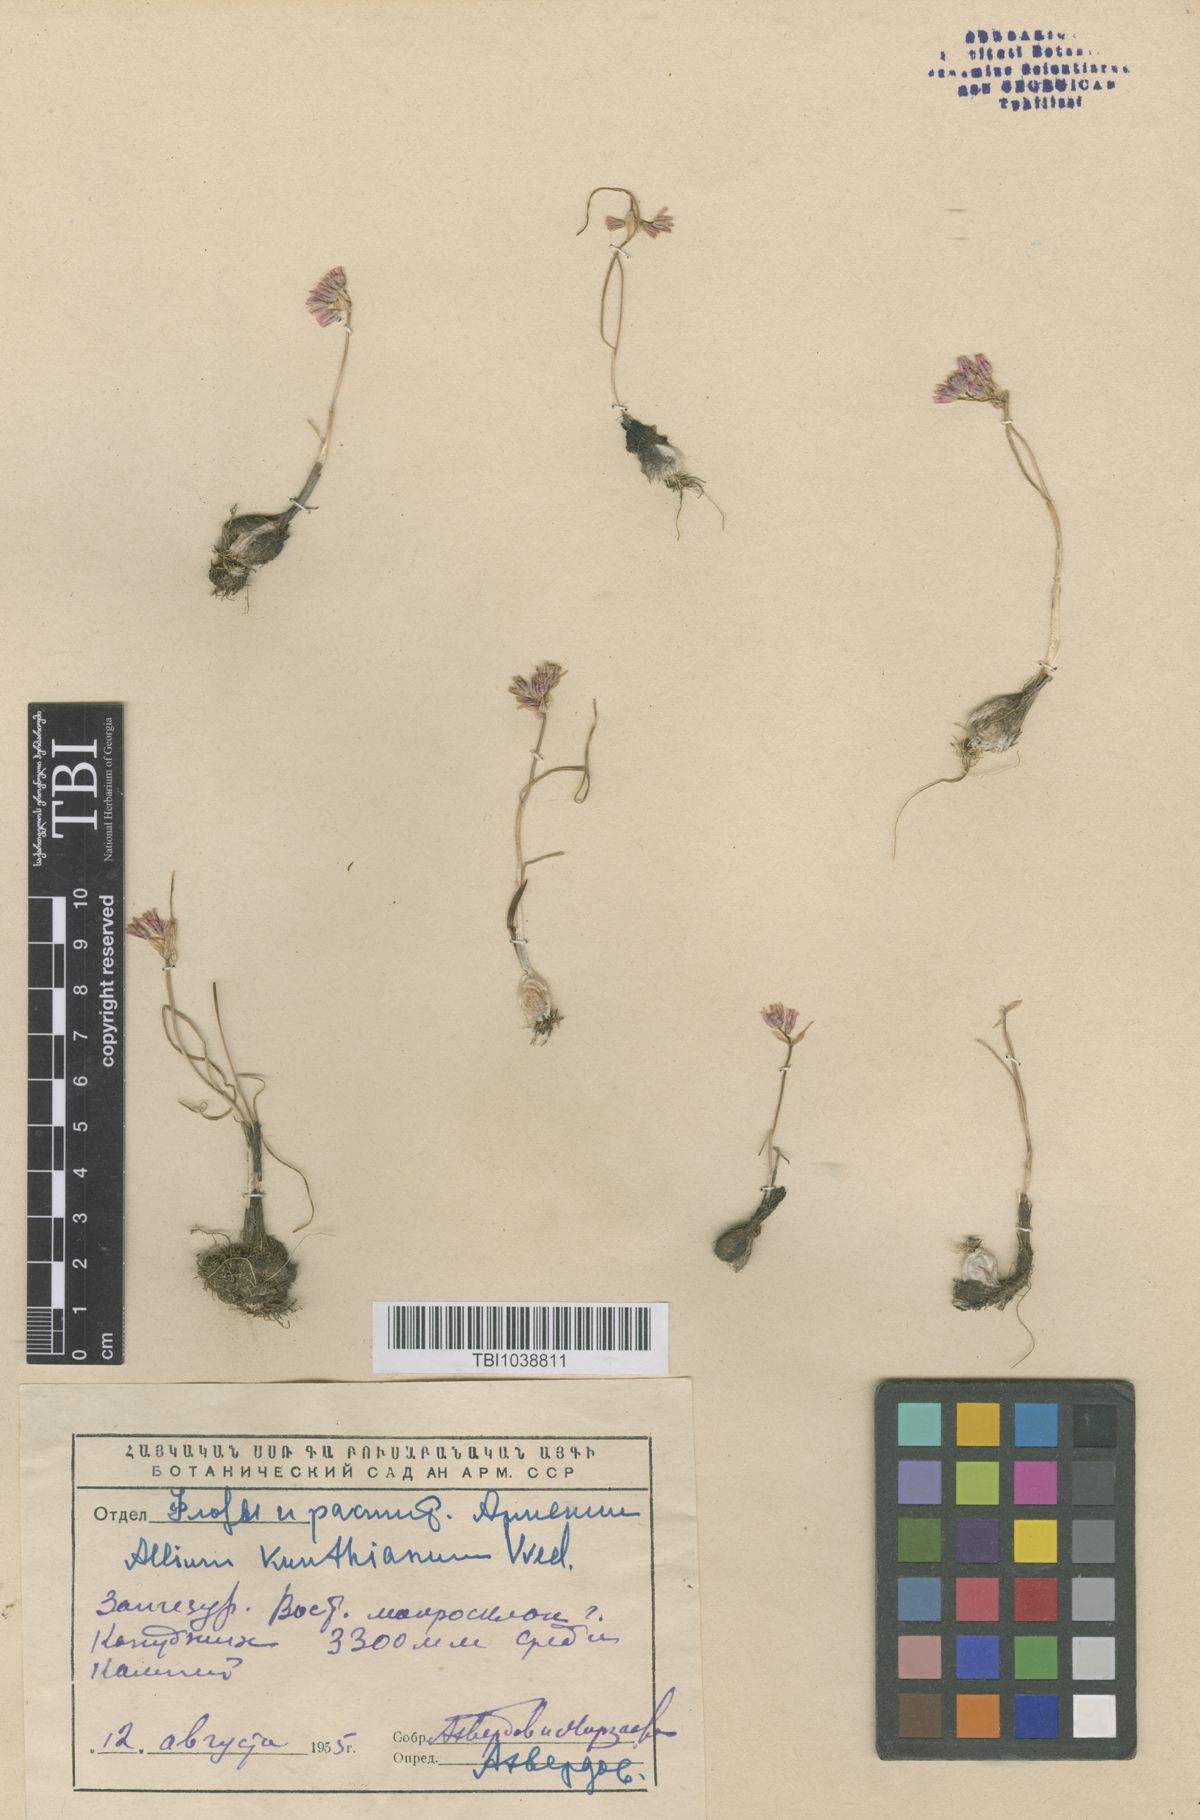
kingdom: Plantae
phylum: Tracheophyta
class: Liliopsida
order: Asparagales
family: Amaryllidaceae
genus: Allium
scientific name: Allium kunthianum
